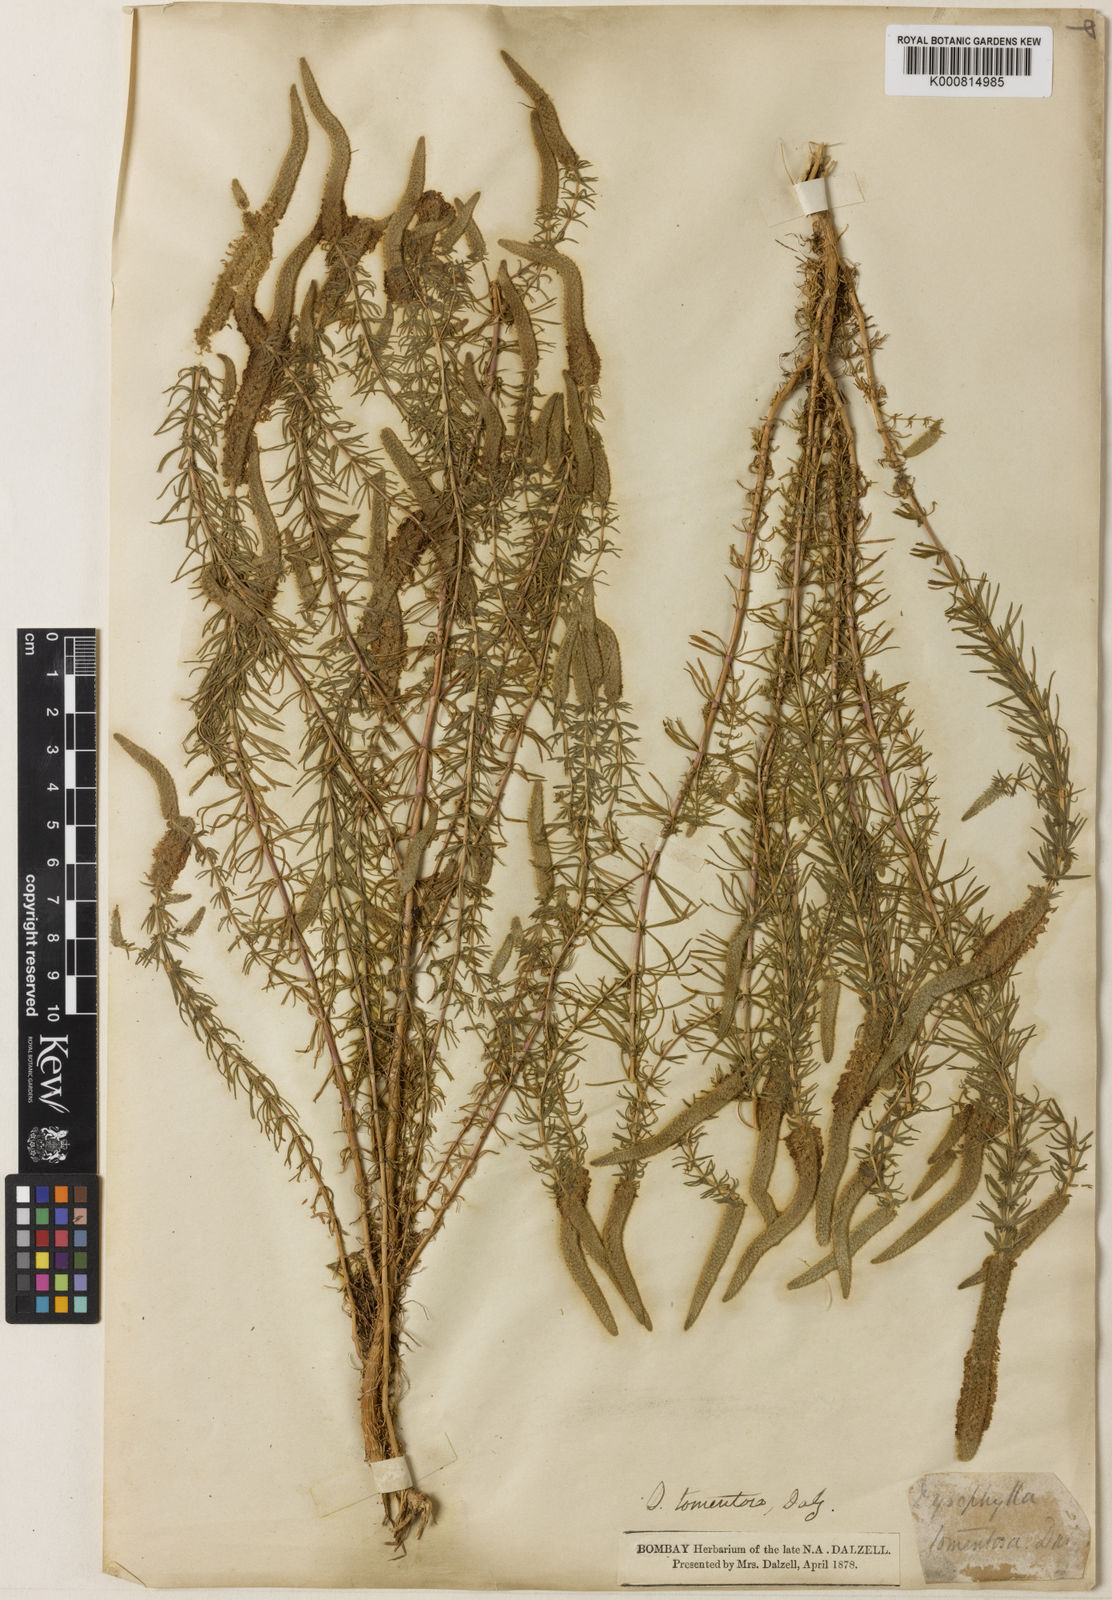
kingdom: Plantae
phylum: Tracheophyta
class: Magnoliopsida
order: Lamiales
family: Lamiaceae
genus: Pogostemon
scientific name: Pogostemon cablin
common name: Patchouli-plant
